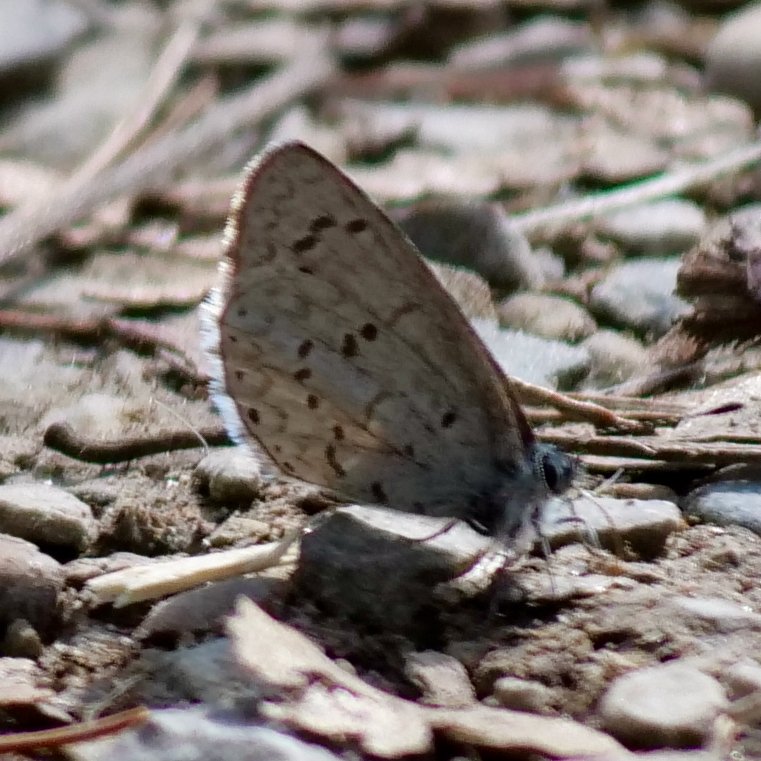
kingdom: Animalia
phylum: Arthropoda
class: Insecta
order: Lepidoptera
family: Lycaenidae
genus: Celastrina
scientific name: Celastrina lucia
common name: Northern Spring Azure
